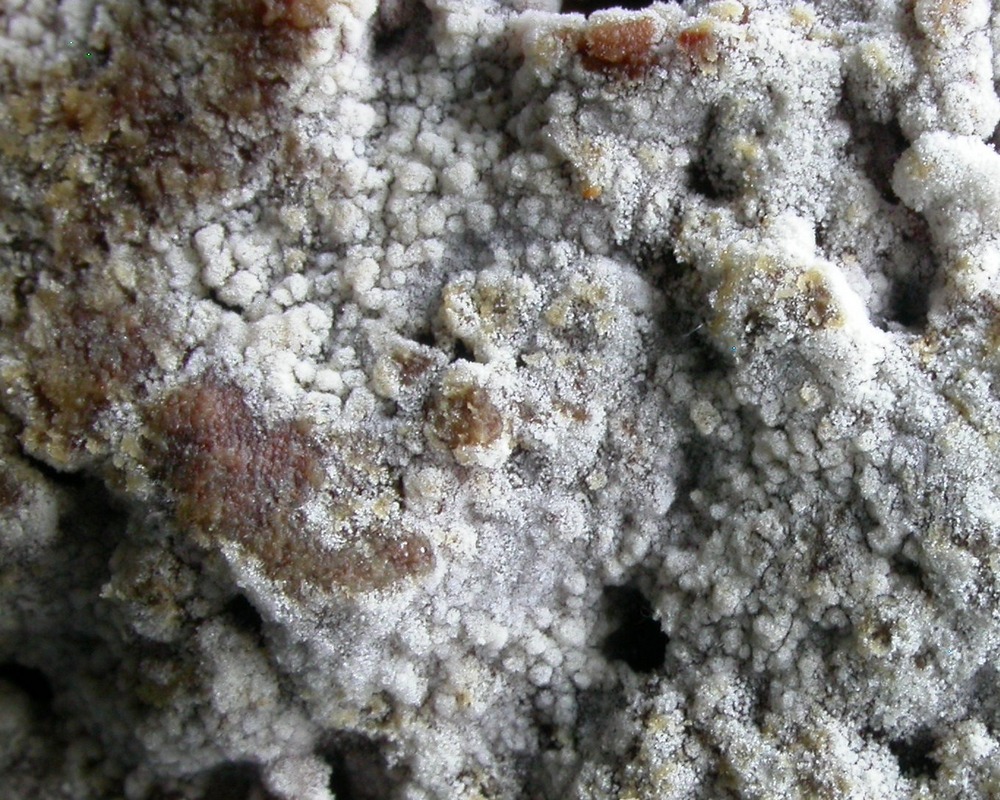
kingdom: Fungi
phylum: Basidiomycota
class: Agaricomycetes
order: Cantharellales
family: Botryobasidiaceae
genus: Botryobasidium
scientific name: Botryobasidium capitatum
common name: kalkhvid spindhinde
